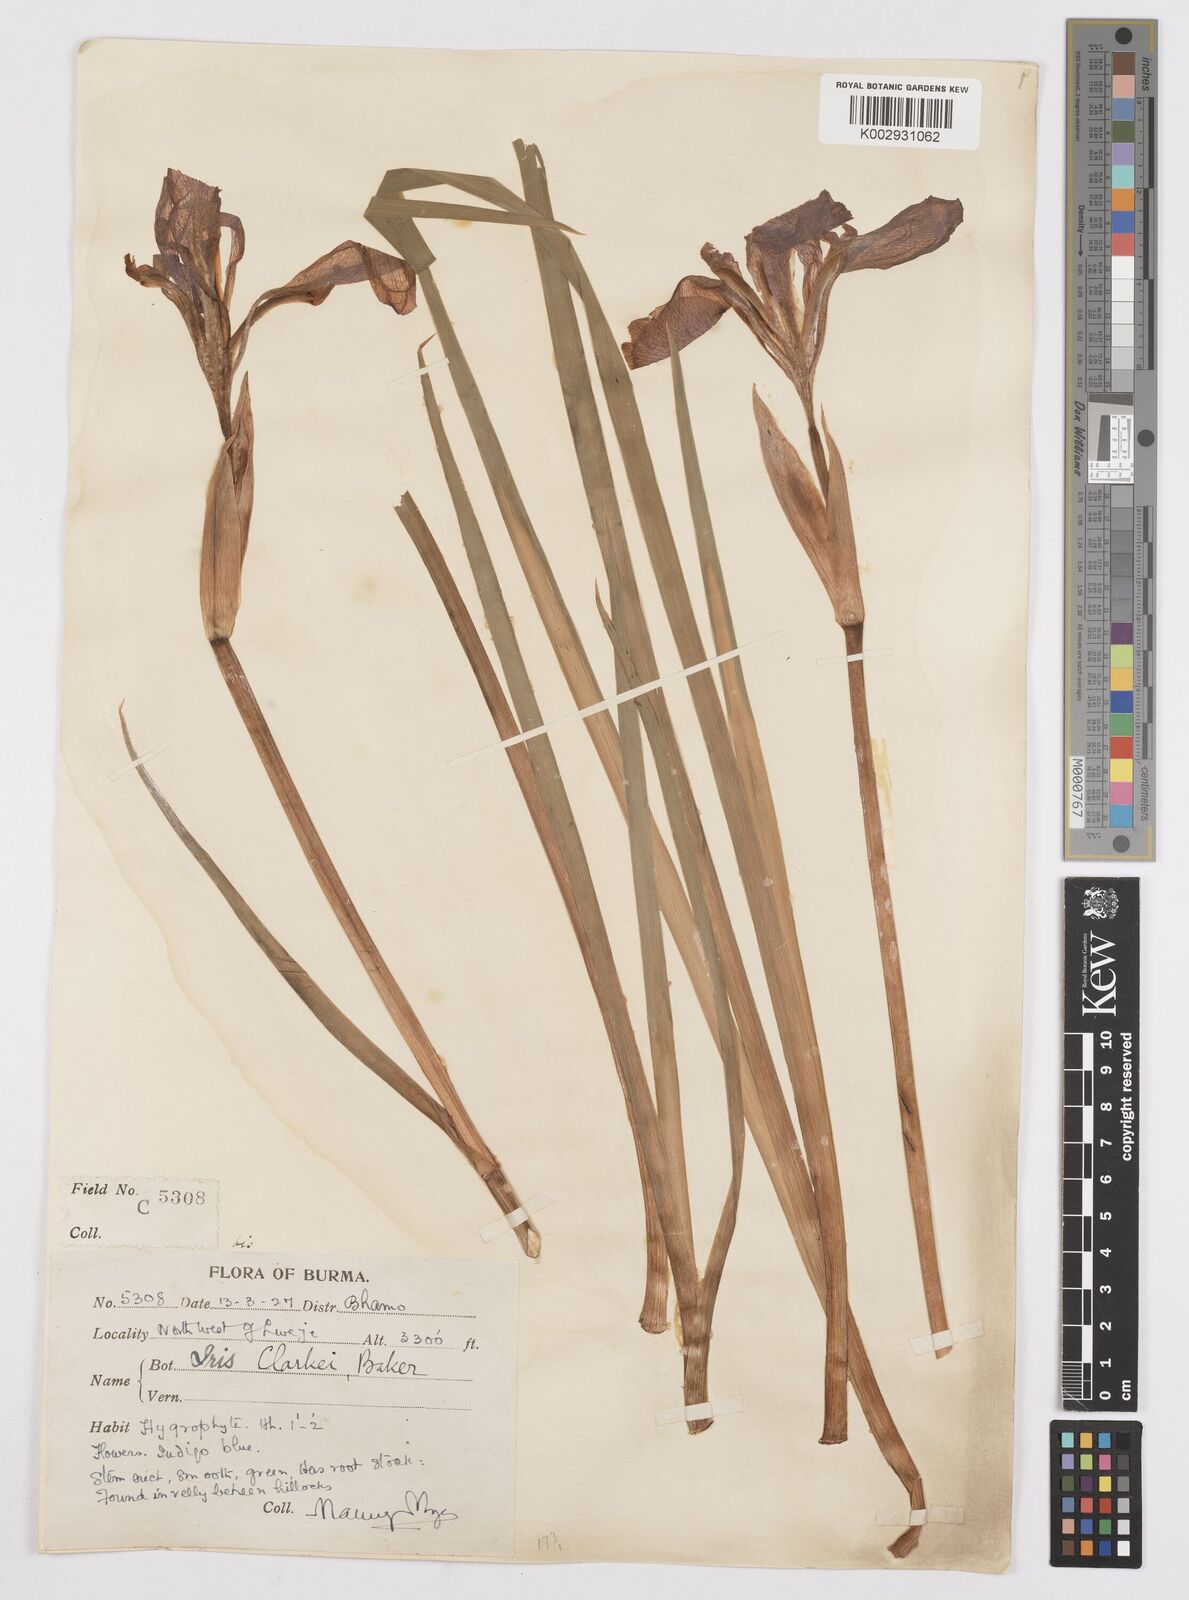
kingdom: Plantae
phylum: Tracheophyta
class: Liliopsida
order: Asparagales
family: Iridaceae
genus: Iris
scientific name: Iris clarkei
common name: Tibet iris
